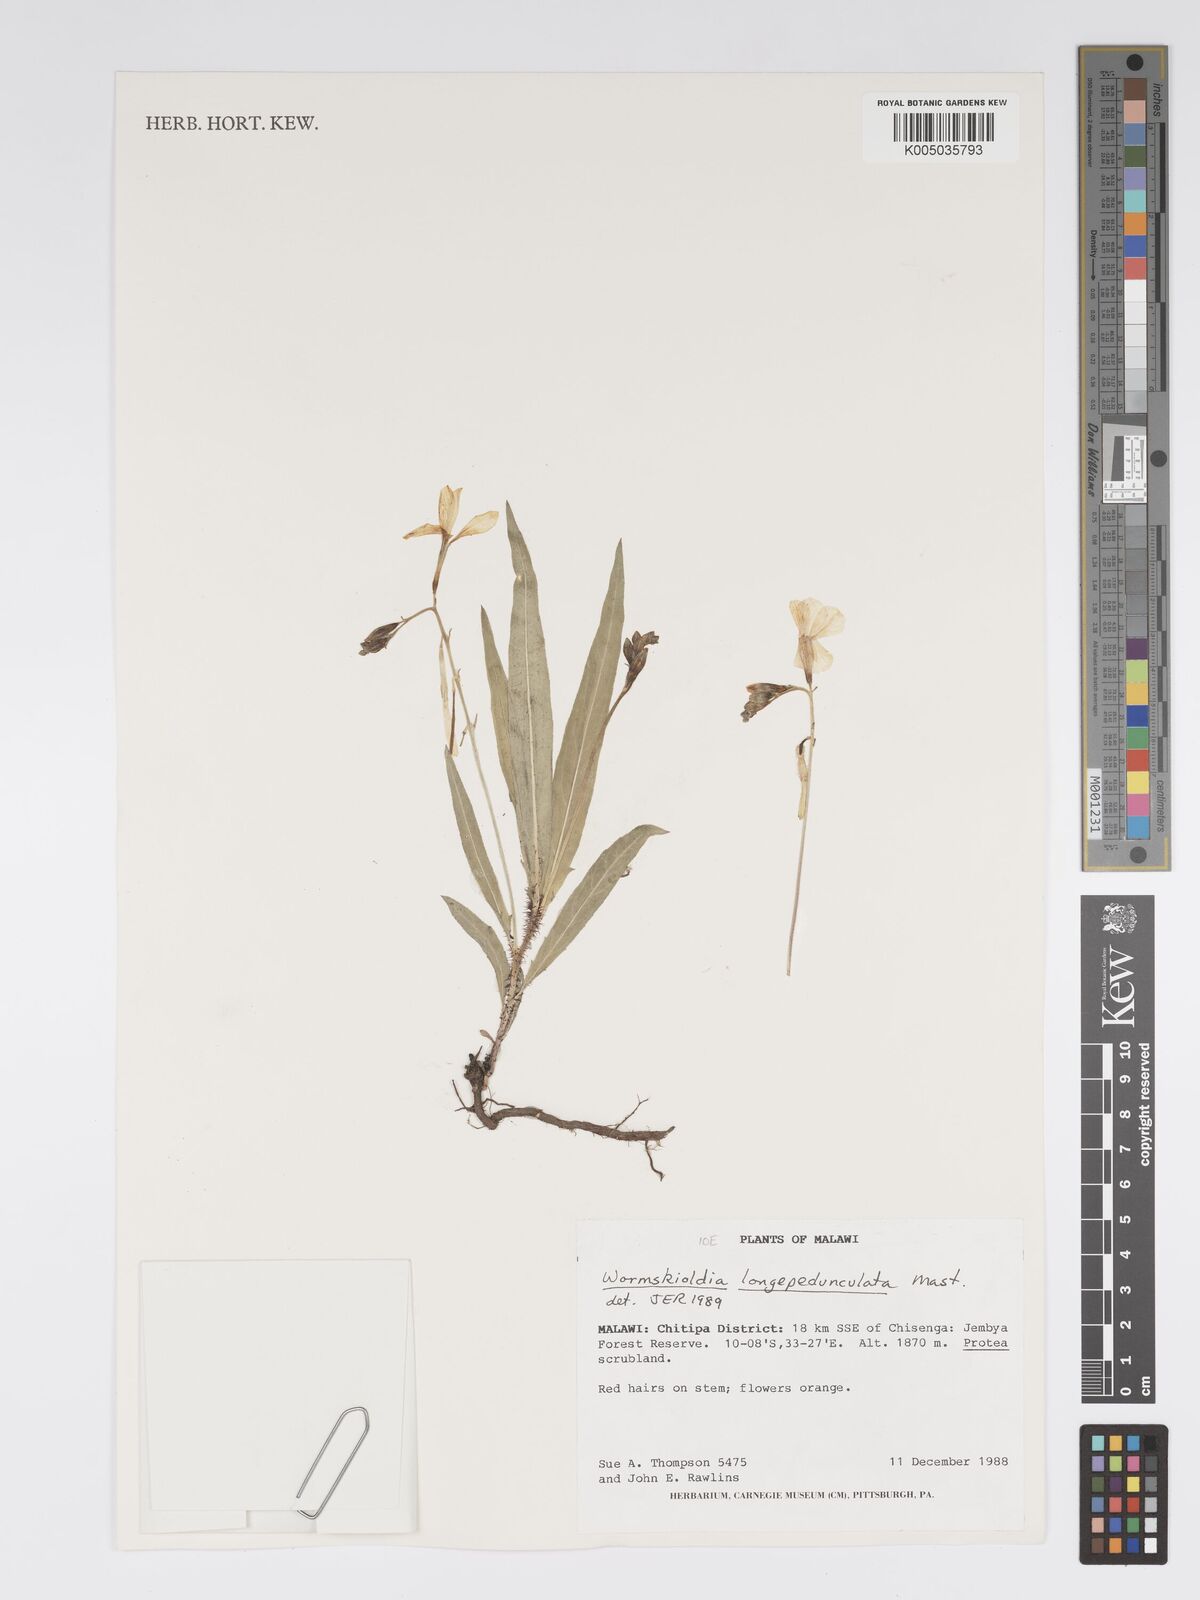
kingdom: Plantae
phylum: Tracheophyta
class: Magnoliopsida
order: Malpighiales
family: Turneraceae
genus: Tricliceras
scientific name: Tricliceras longepedunculatum
